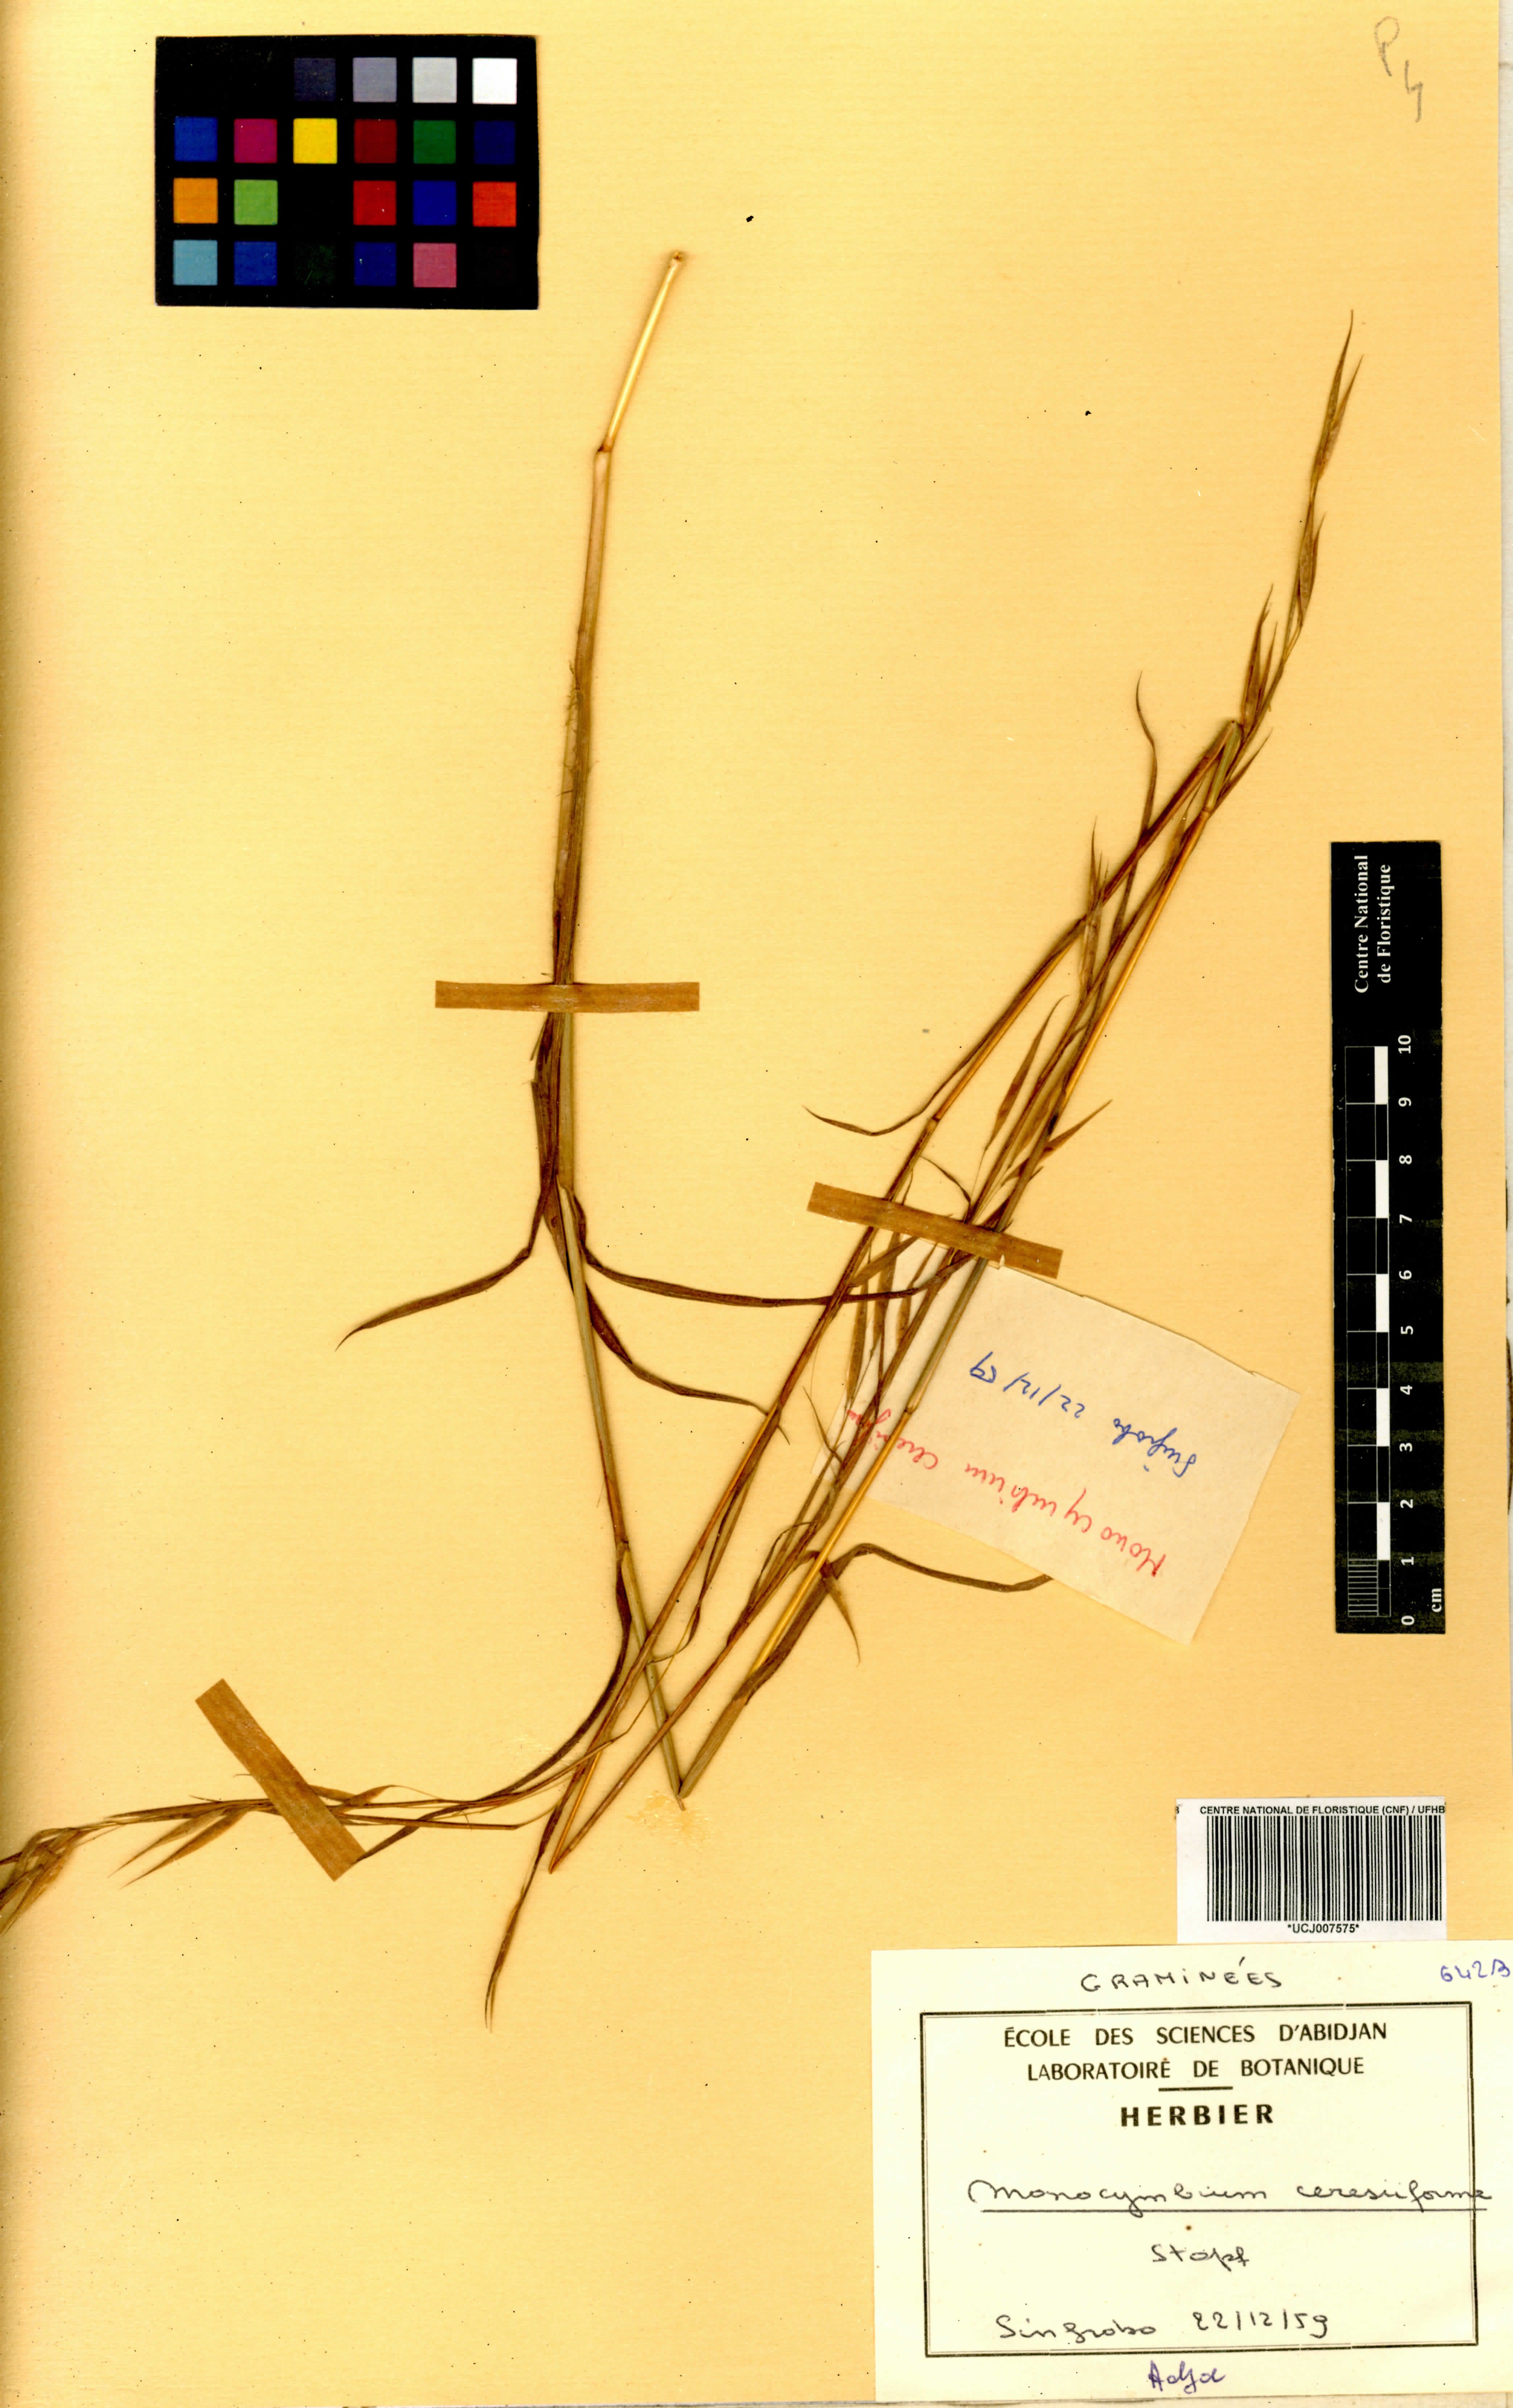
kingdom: Plantae
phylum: Tracheophyta
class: Liliopsida
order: Poales
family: Poaceae
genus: Monocymbium
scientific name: Monocymbium ceresiiforme
